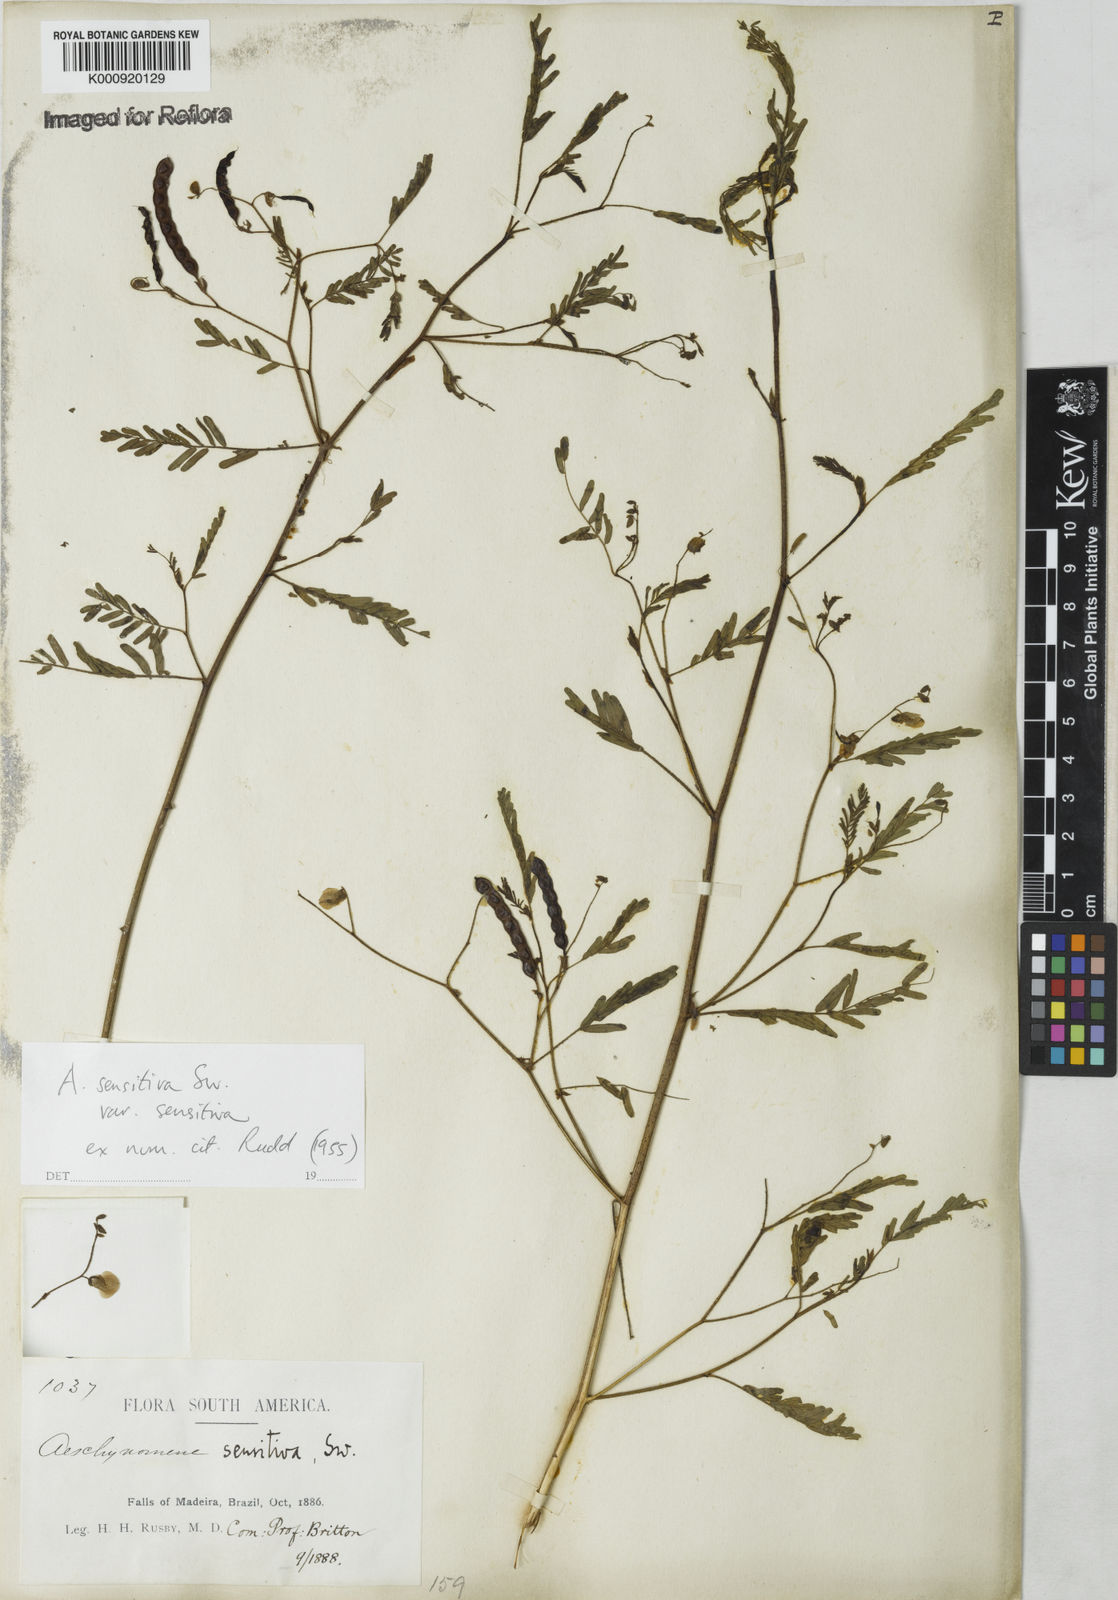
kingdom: Plantae
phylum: Tracheophyta
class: Magnoliopsida
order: Fabales
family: Fabaceae
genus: Aeschynomene
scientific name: Aeschynomene sensitiva
